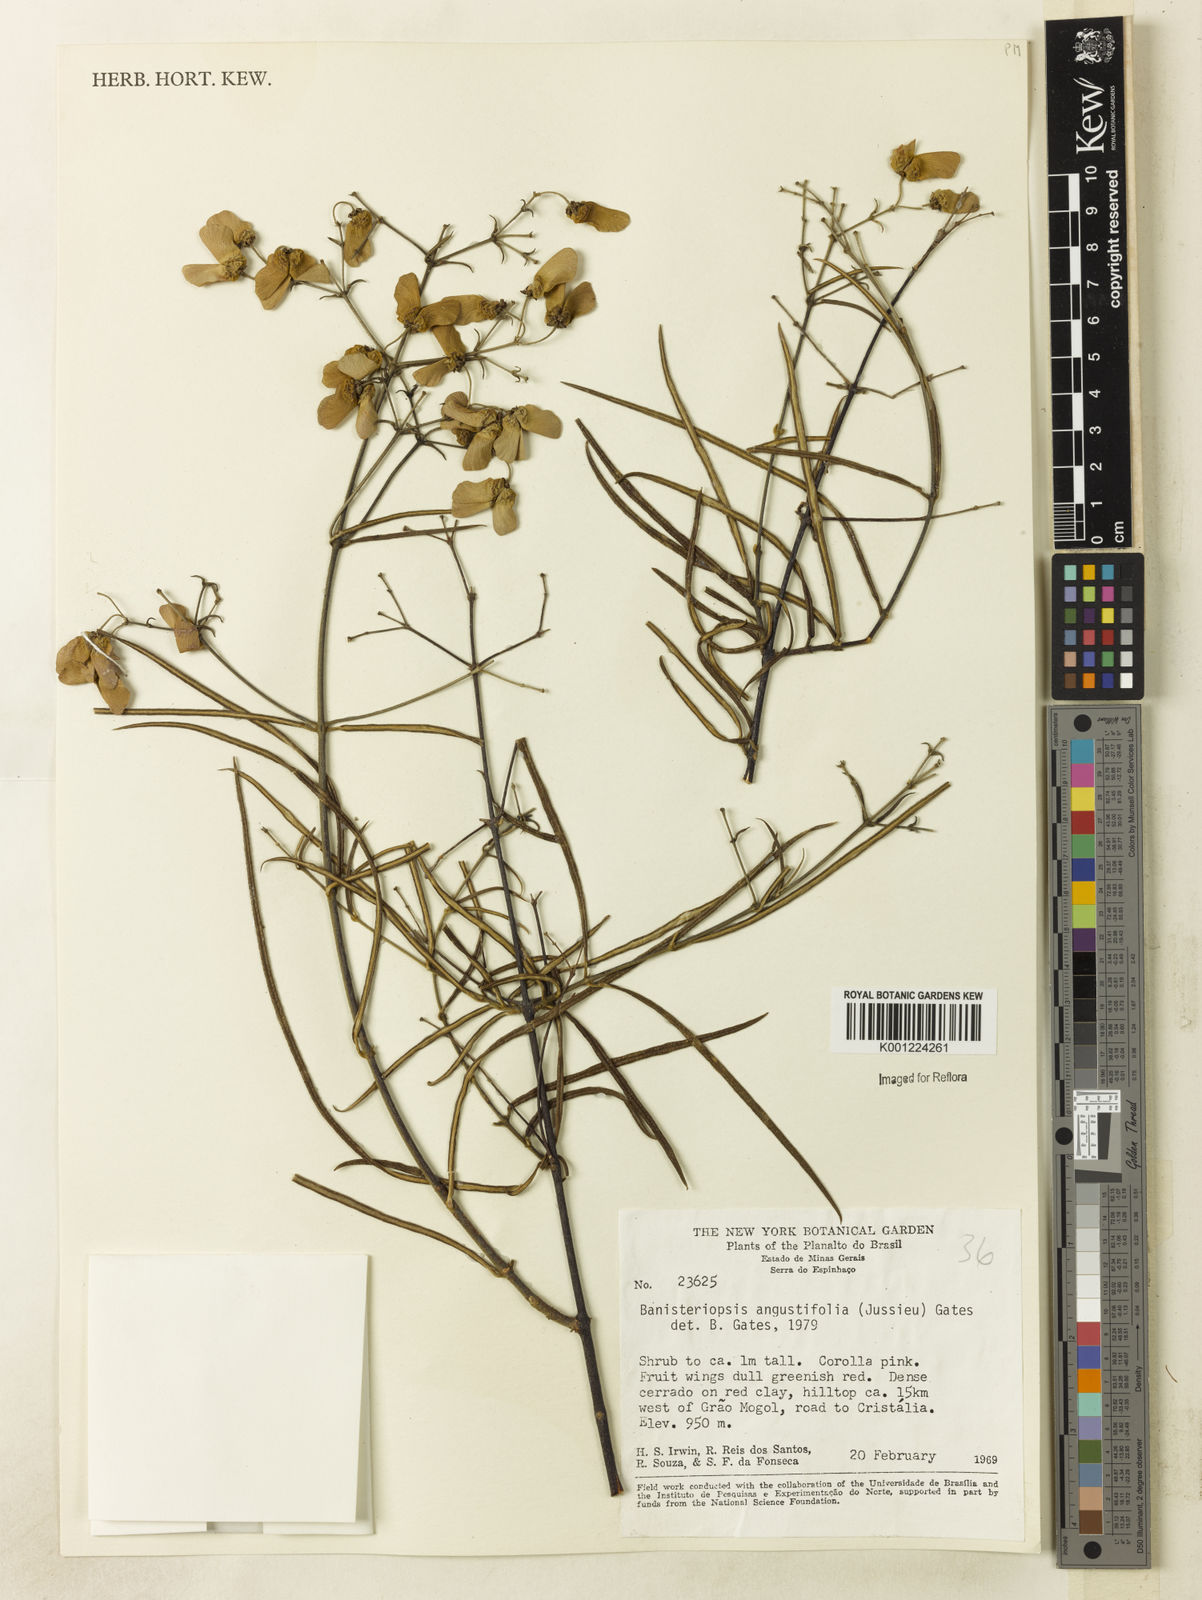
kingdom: Plantae
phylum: Tracheophyta
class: Magnoliopsida
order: Malpighiales
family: Malpighiaceae
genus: Banisteriopsis
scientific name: Banisteriopsis angustifolia
